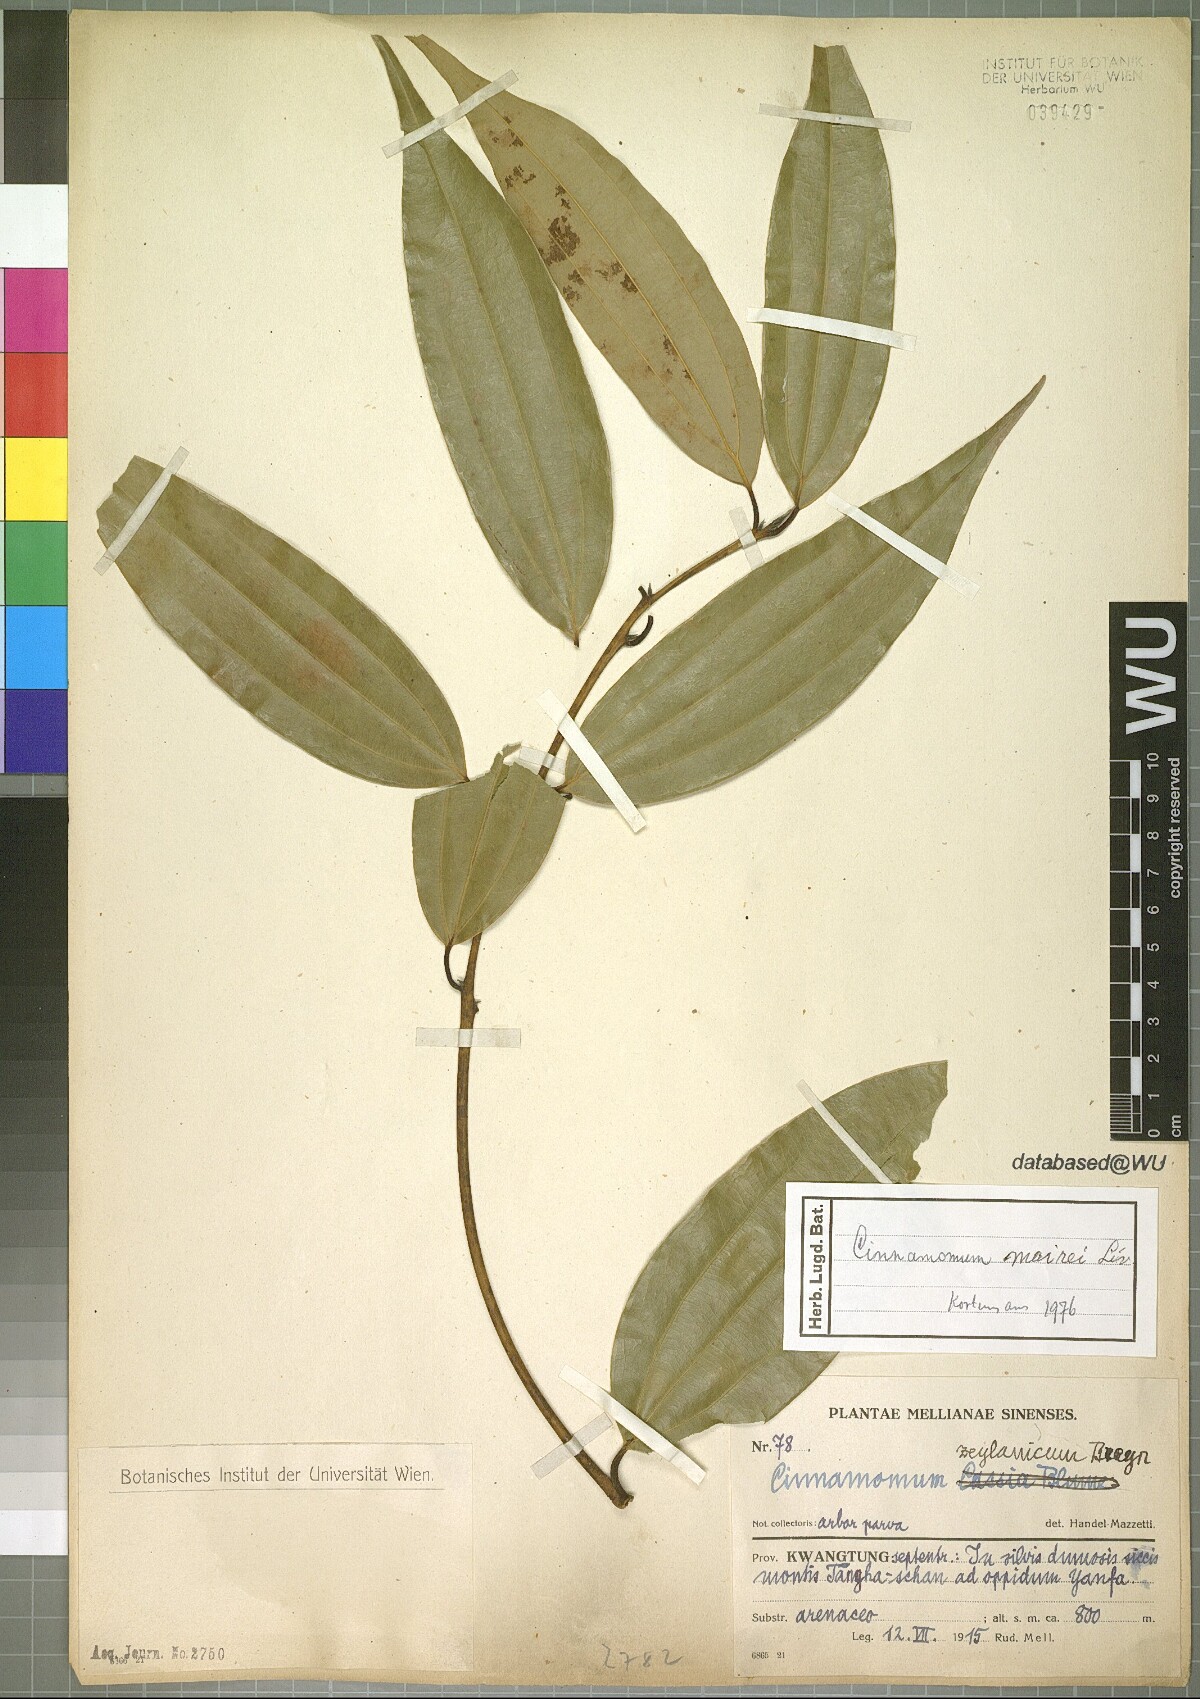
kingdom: Plantae
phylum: Tracheophyta
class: Magnoliopsida
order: Laurales
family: Lauraceae
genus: Cinnamomum
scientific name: Cinnamomum mairei
